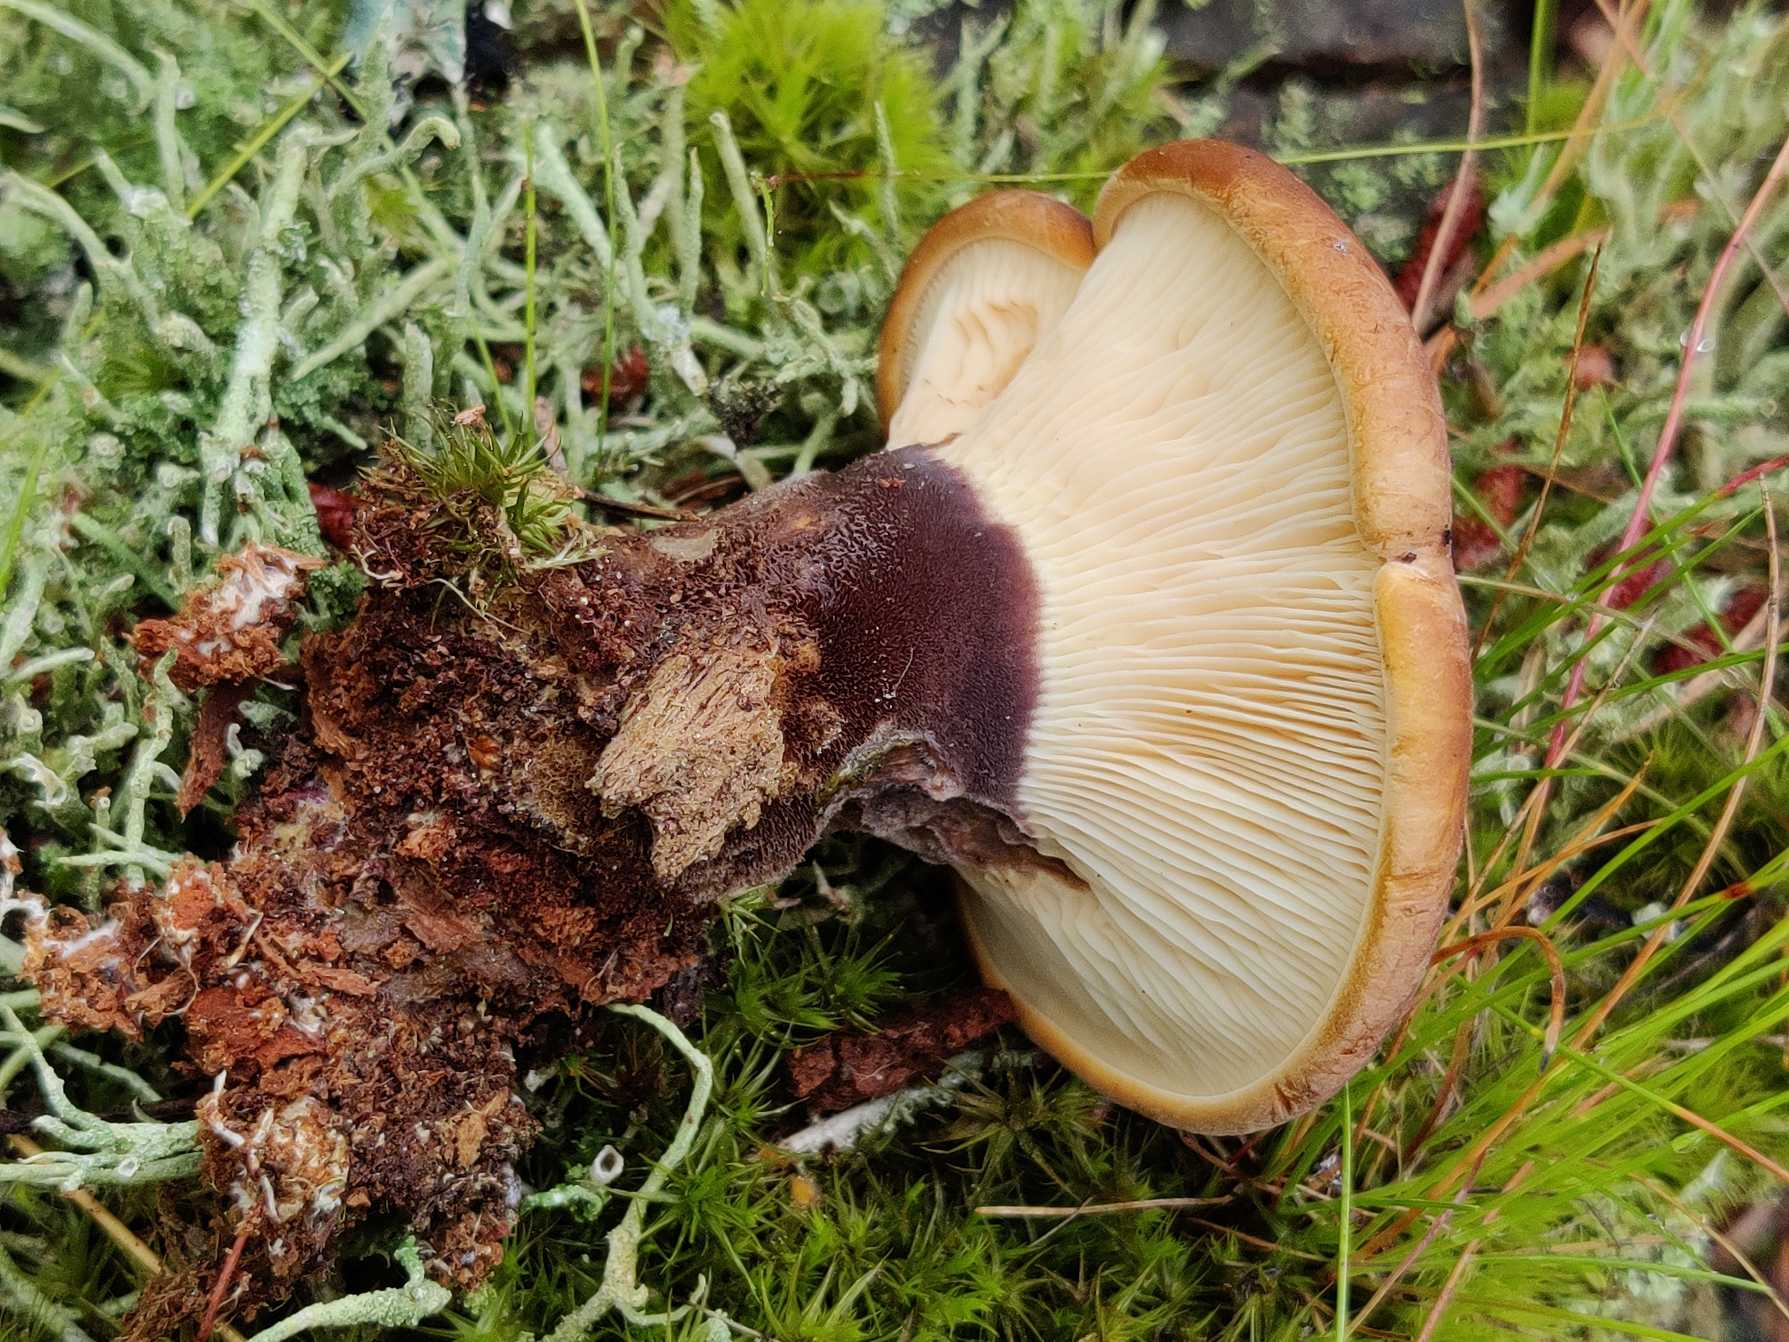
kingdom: Fungi
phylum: Basidiomycota
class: Agaricomycetes
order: Boletales
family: Tapinellaceae
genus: Tapinella
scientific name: Tapinella atrotomentosa
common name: Sortfiltet viftesvamp
